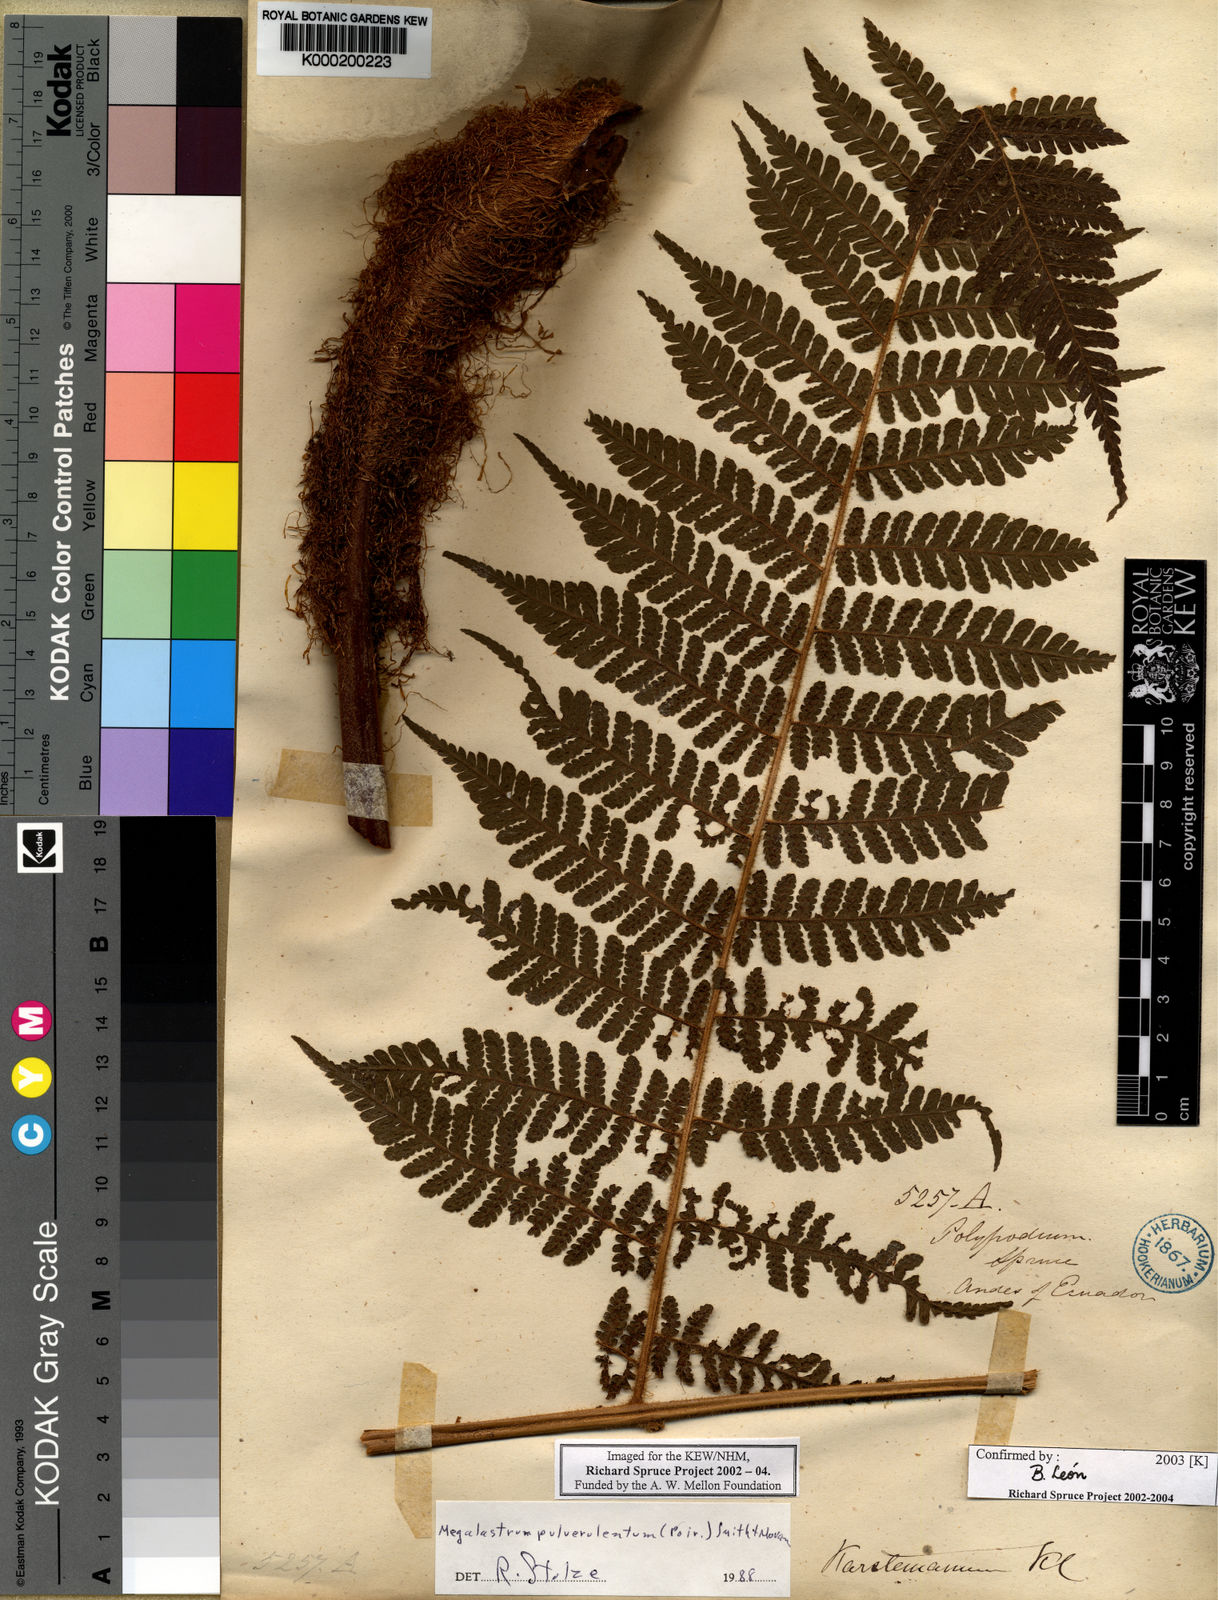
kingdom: Plantae
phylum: Tracheophyta
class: Polypodiopsida
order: Polypodiales
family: Dryopteridaceae
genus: Megalastrum
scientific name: Megalastrum
